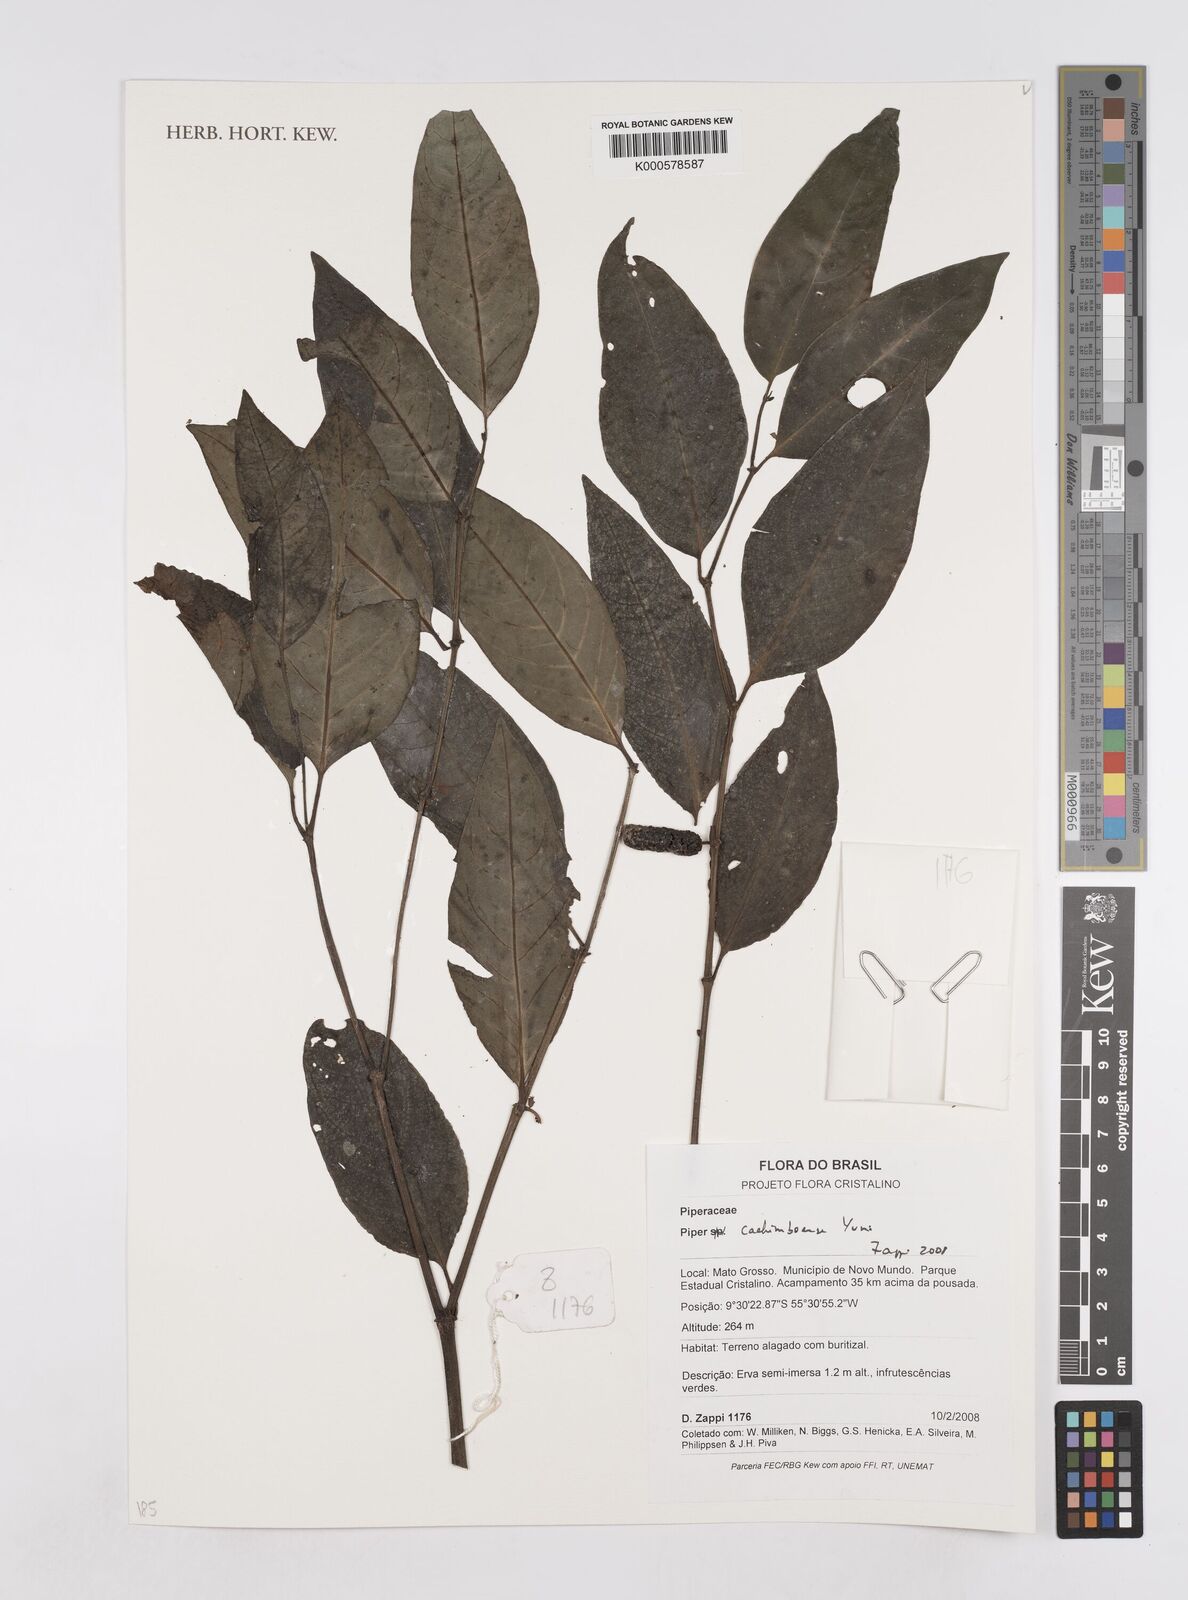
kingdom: Plantae
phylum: Tracheophyta
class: Magnoliopsida
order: Piperales
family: Piperaceae
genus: Piper
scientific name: Piper cachimboense
